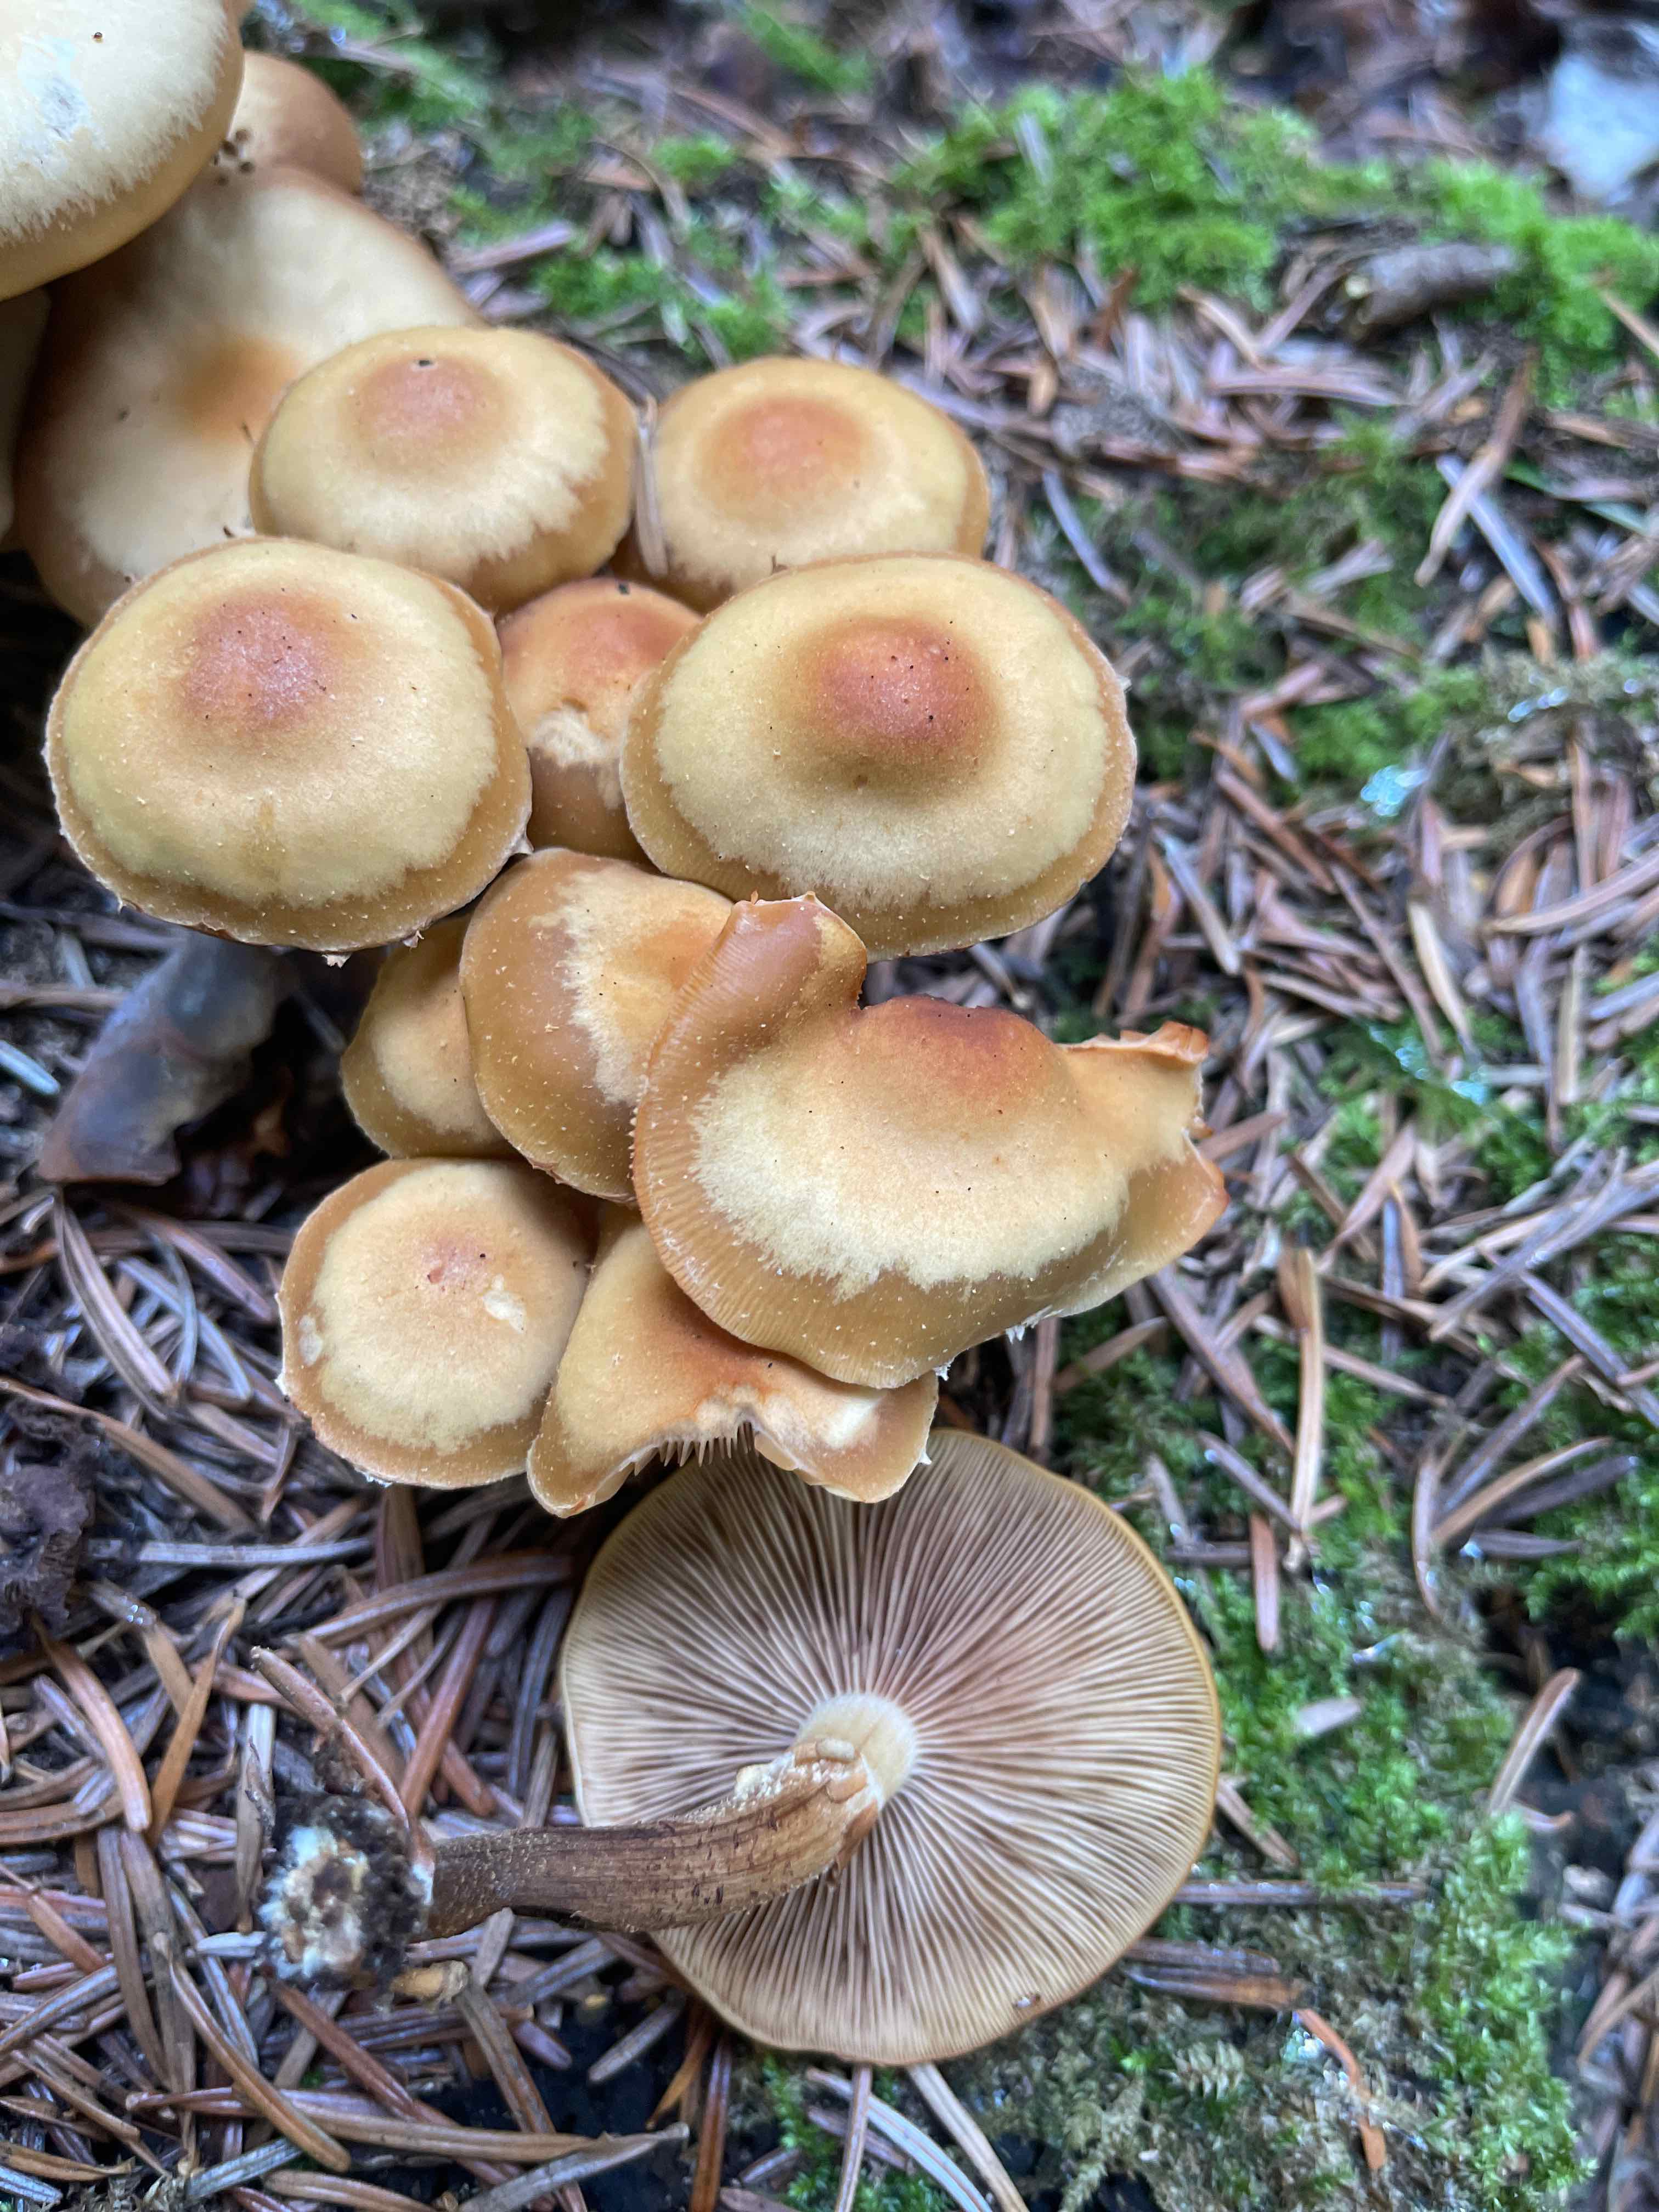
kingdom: Fungi
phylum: Basidiomycota
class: Agaricomycetes
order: Agaricales
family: Strophariaceae
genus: Kuehneromyces
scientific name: Kuehneromyces mutabilis
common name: foranderlig skælhat
